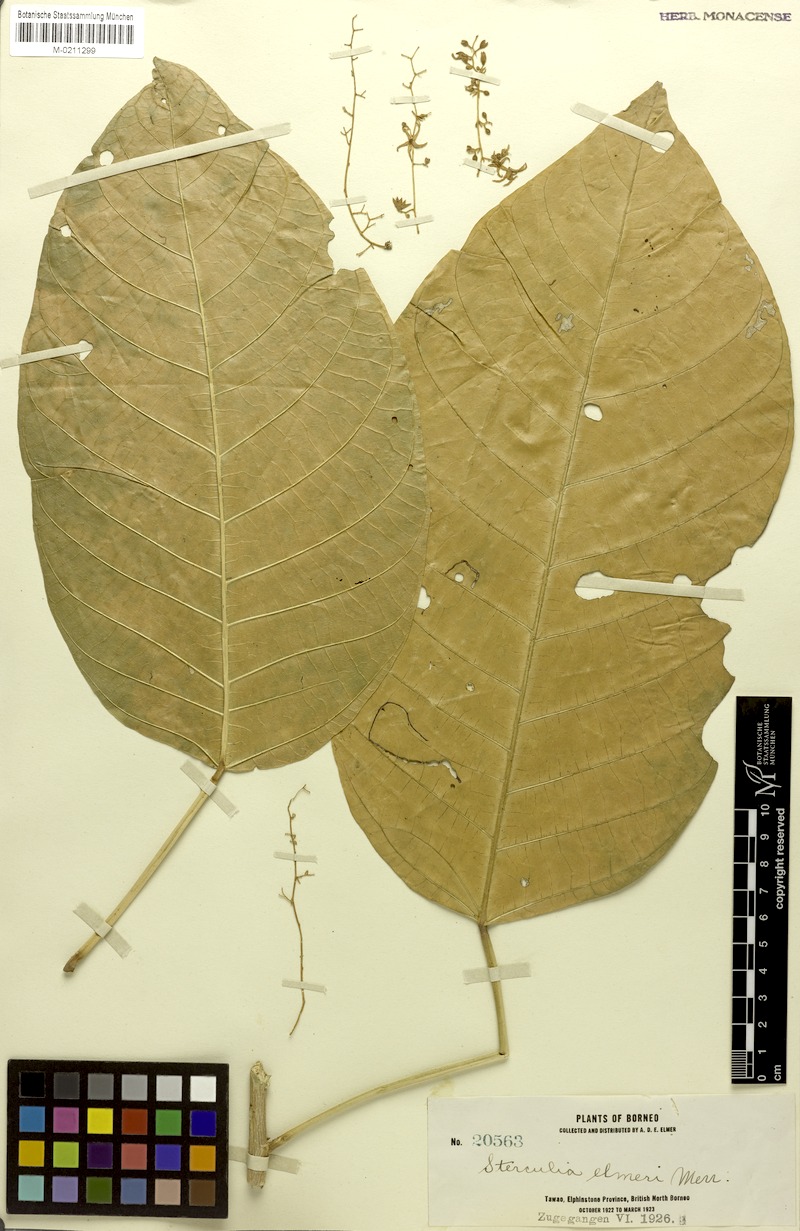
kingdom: Plantae
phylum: Tracheophyta
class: Magnoliopsida
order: Malvales
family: Malvaceae
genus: Sterculia
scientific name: Sterculia elmeri
